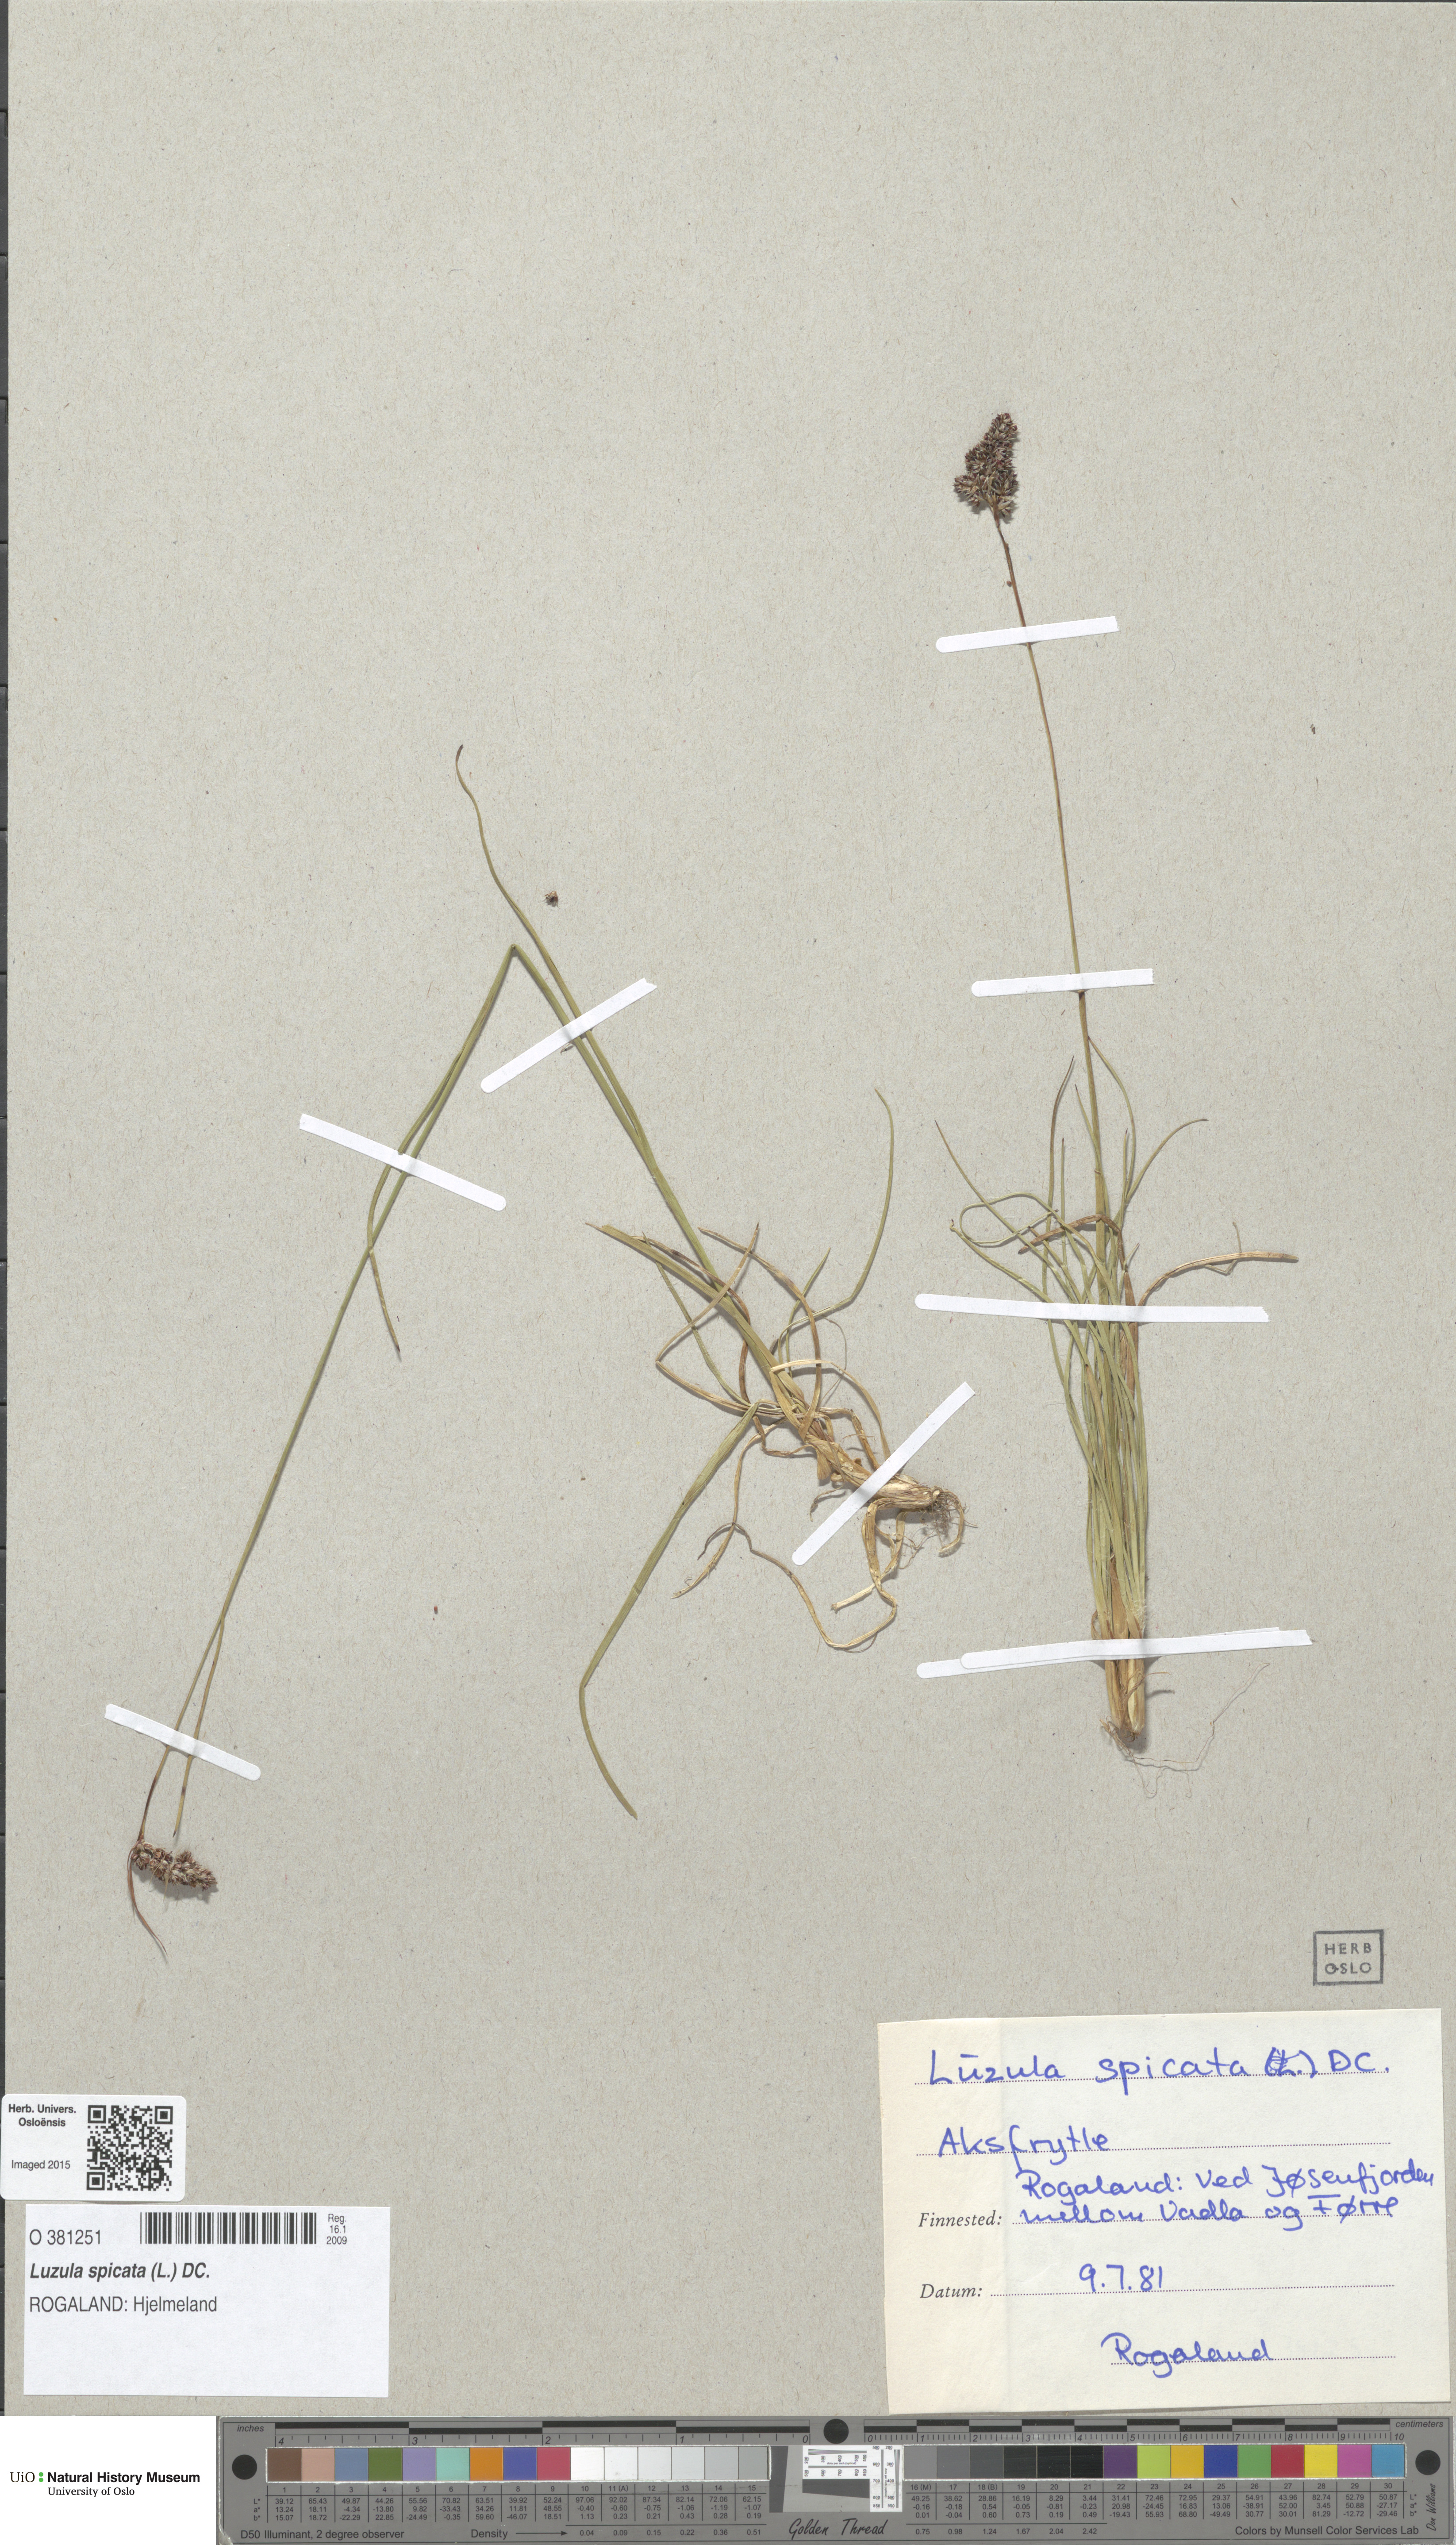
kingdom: Plantae
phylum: Tracheophyta
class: Liliopsida
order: Poales
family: Juncaceae
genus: Luzula
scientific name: Luzula spicata
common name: Spiked wood-rush
